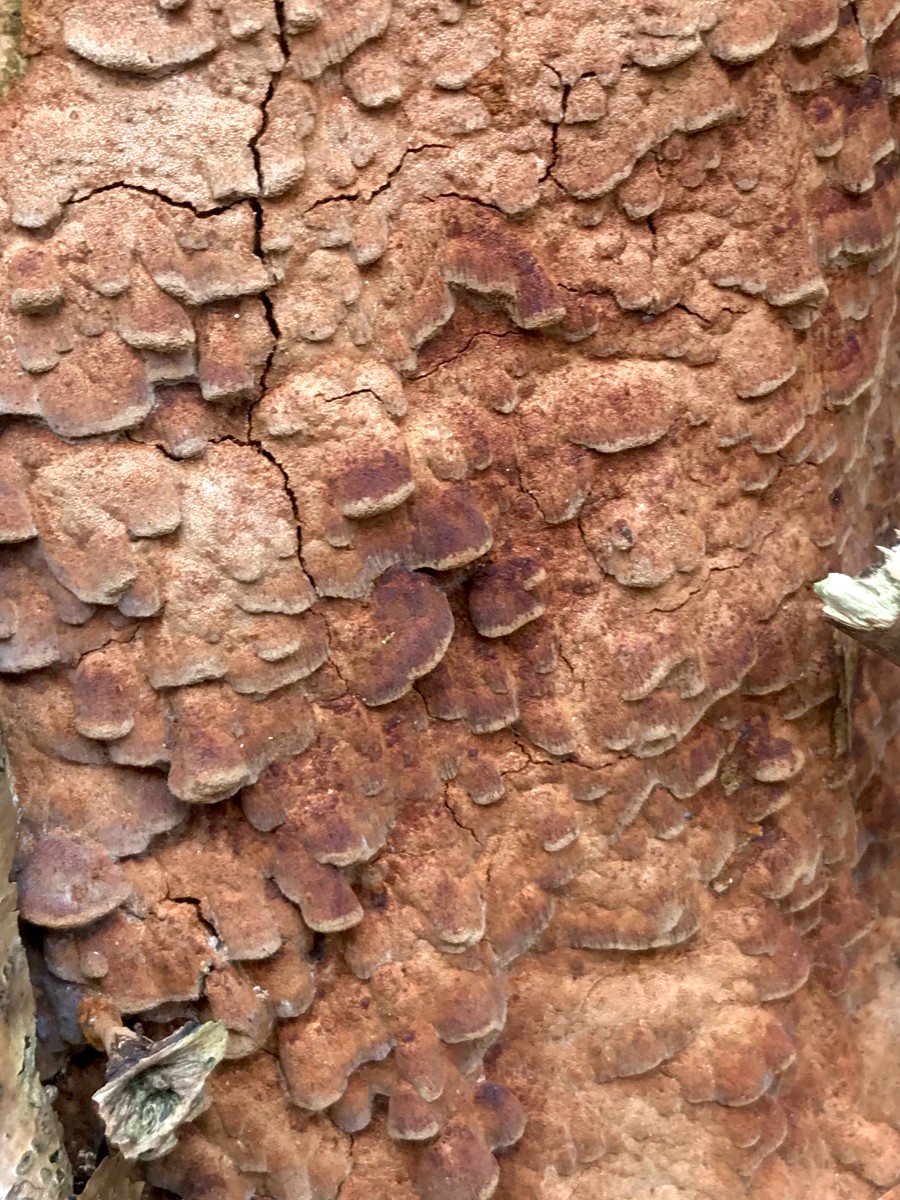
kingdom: Fungi
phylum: Basidiomycota
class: Agaricomycetes
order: Hymenochaetales
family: Hymenochaetaceae
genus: Fuscoporia
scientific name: Fuscoporia ferrea
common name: skorpe-ildporesvamp
